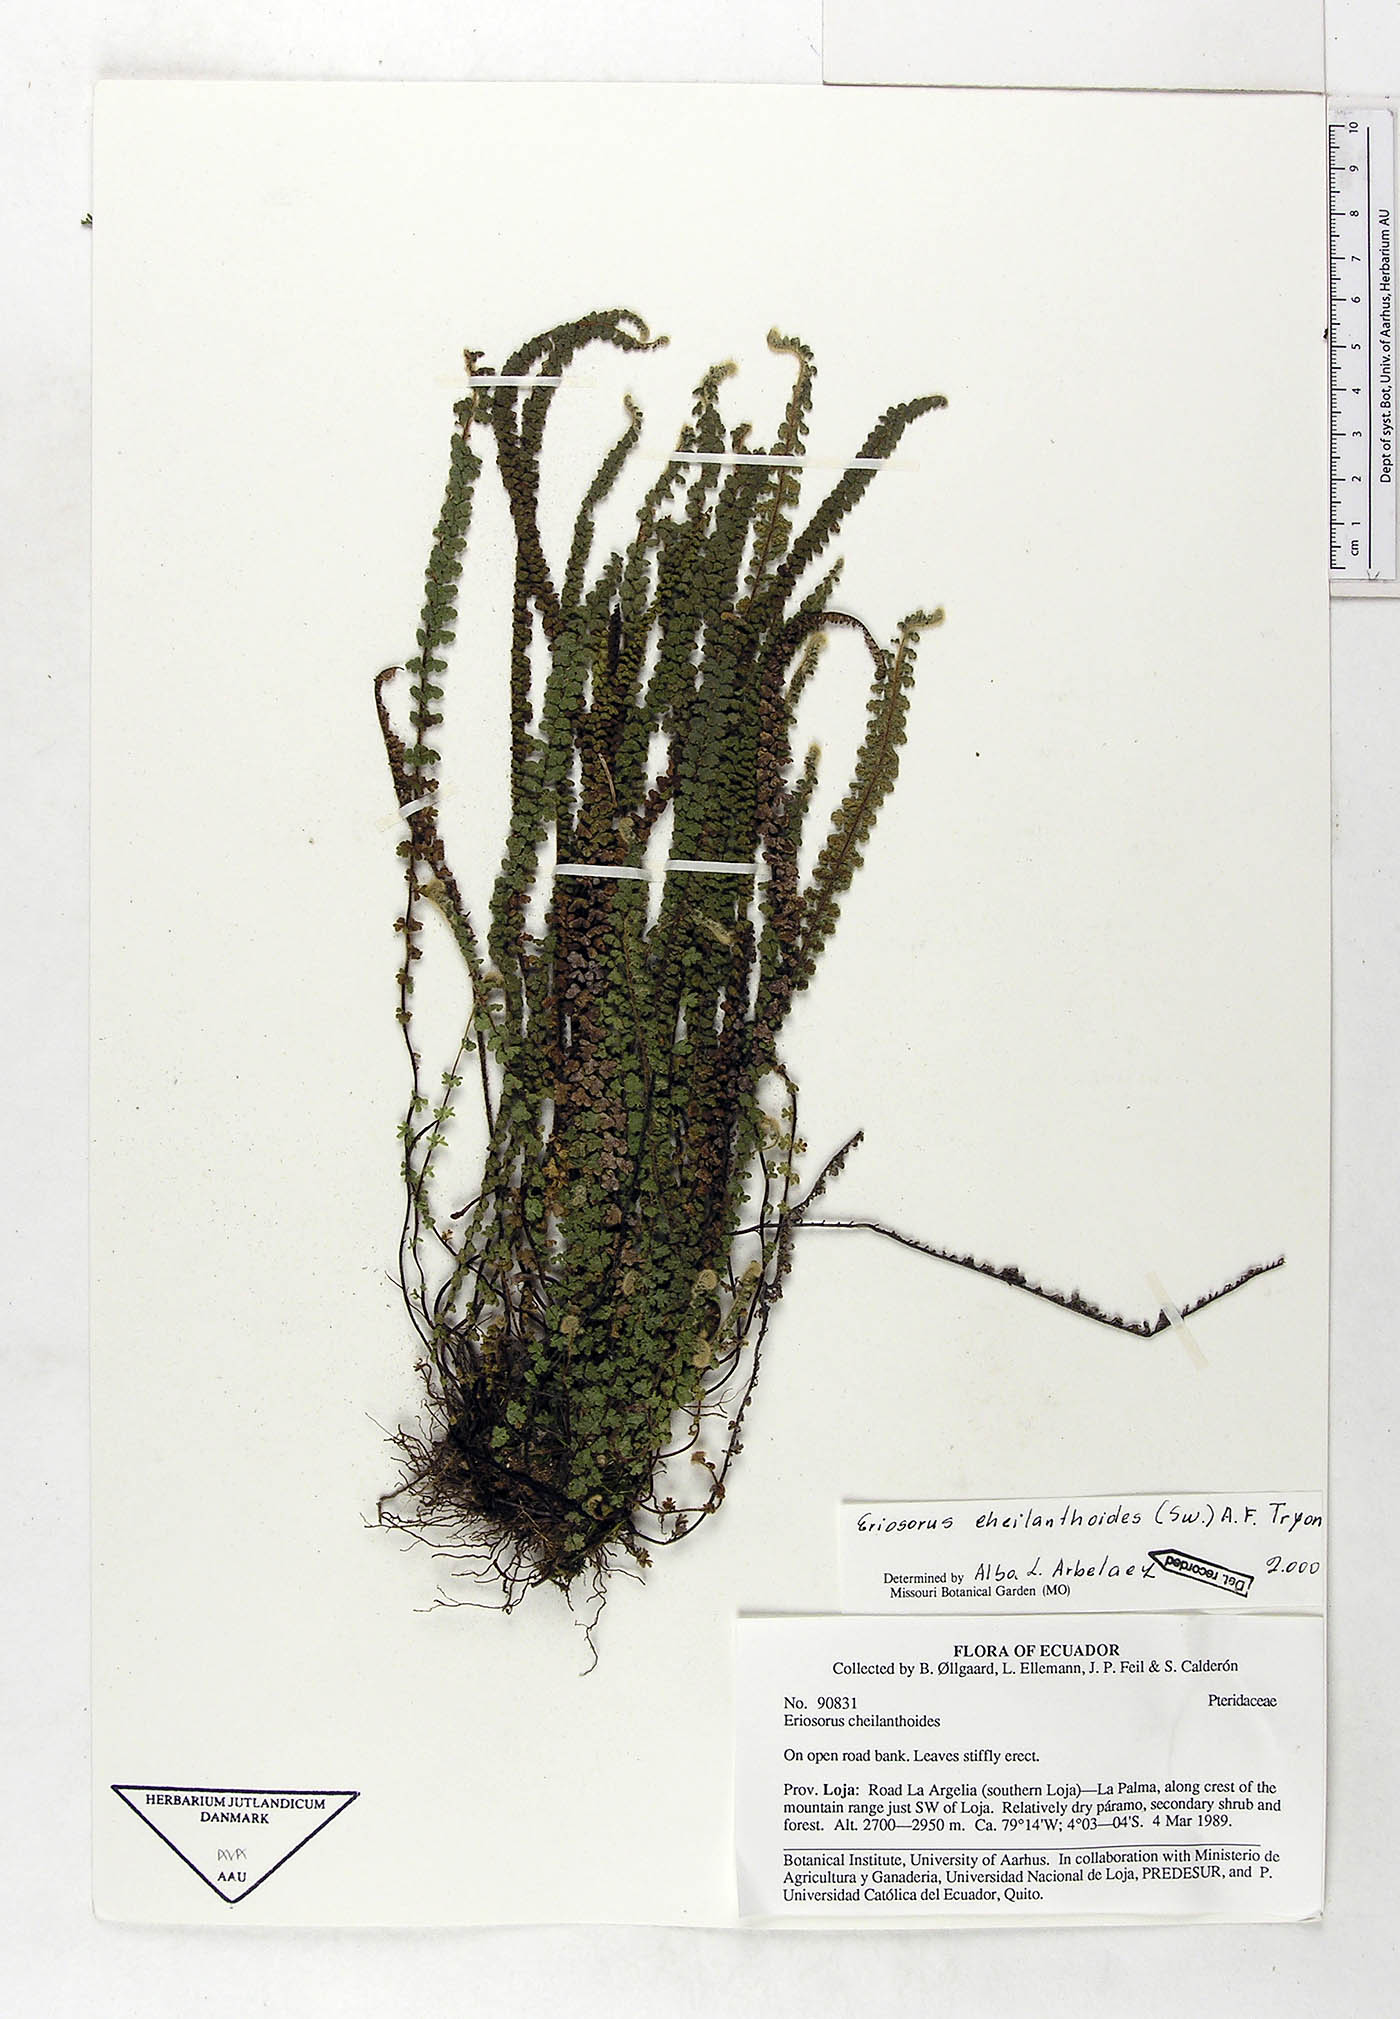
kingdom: Plantae
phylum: Tracheophyta
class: Polypodiopsida
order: Polypodiales
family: Pteridaceae
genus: Jamesonia
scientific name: Jamesonia cheilanthoides
